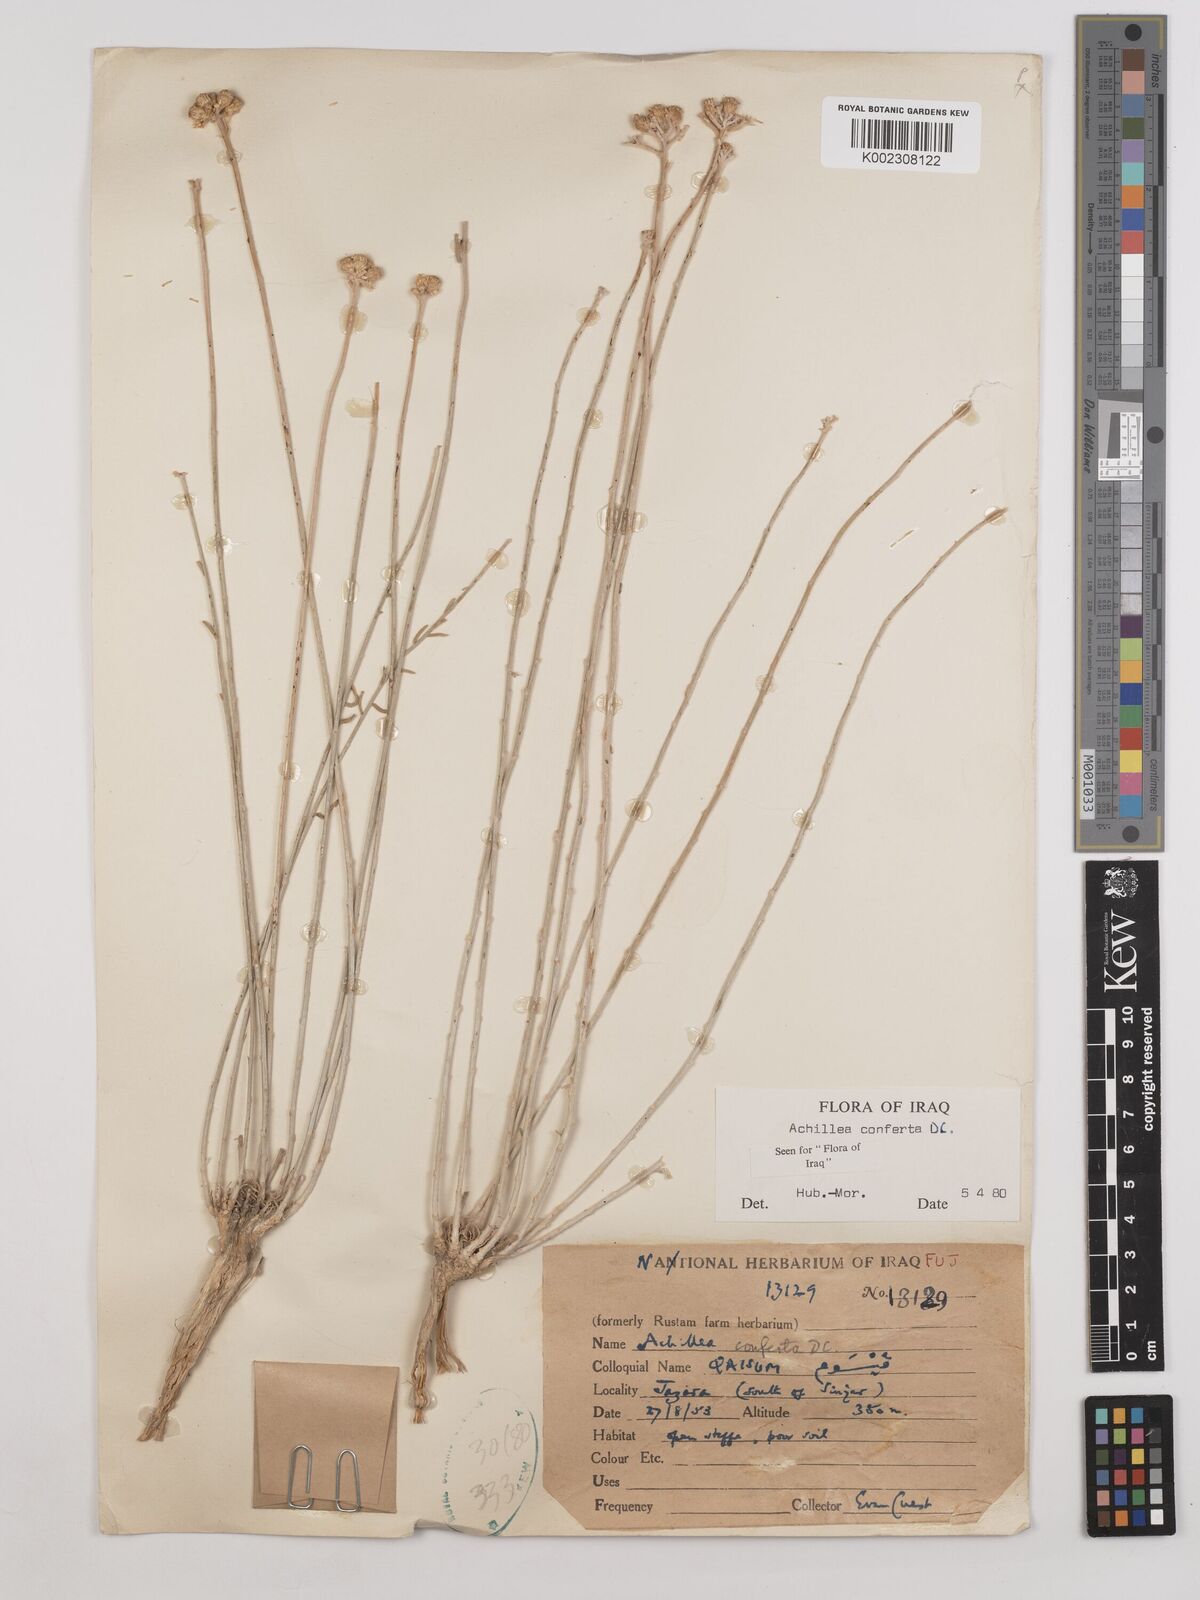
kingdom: Plantae
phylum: Tracheophyta
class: Magnoliopsida
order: Asterales
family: Asteraceae
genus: Achillea
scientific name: Achillea conferta
